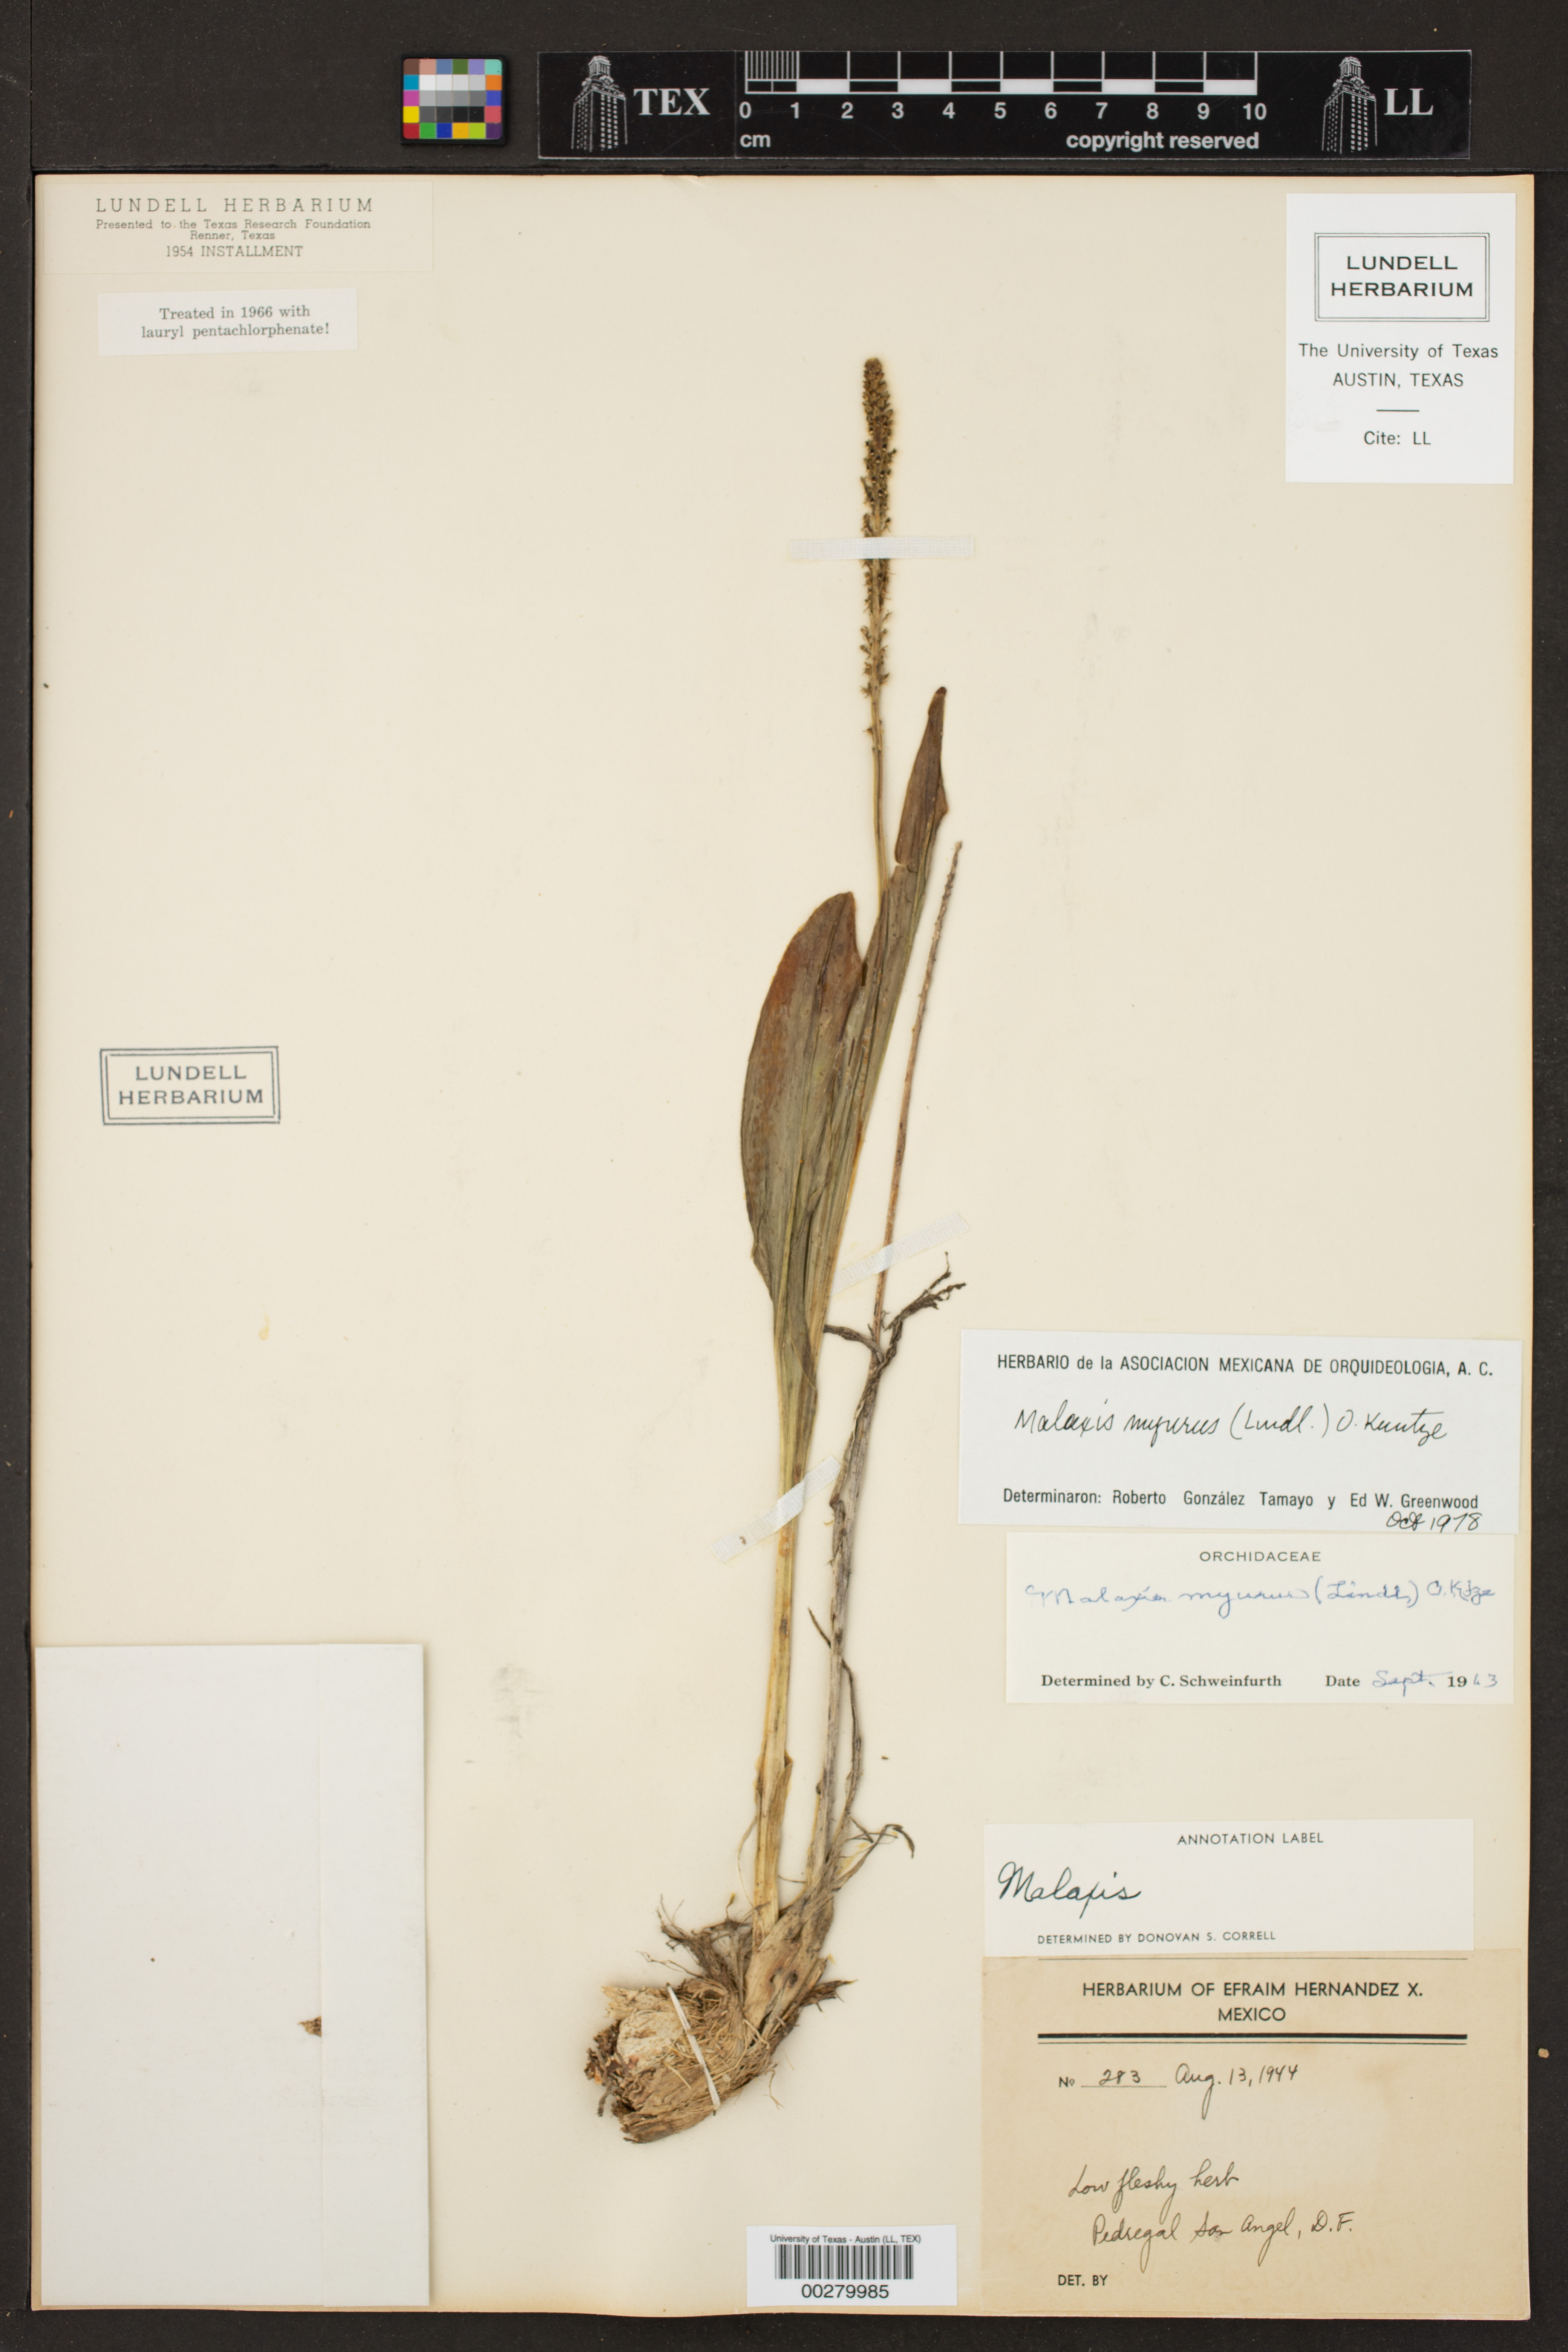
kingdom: Plantae
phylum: Tracheophyta
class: Liliopsida
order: Asparagales
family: Orchidaceae
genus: Malaxis
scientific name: Malaxis myurus
